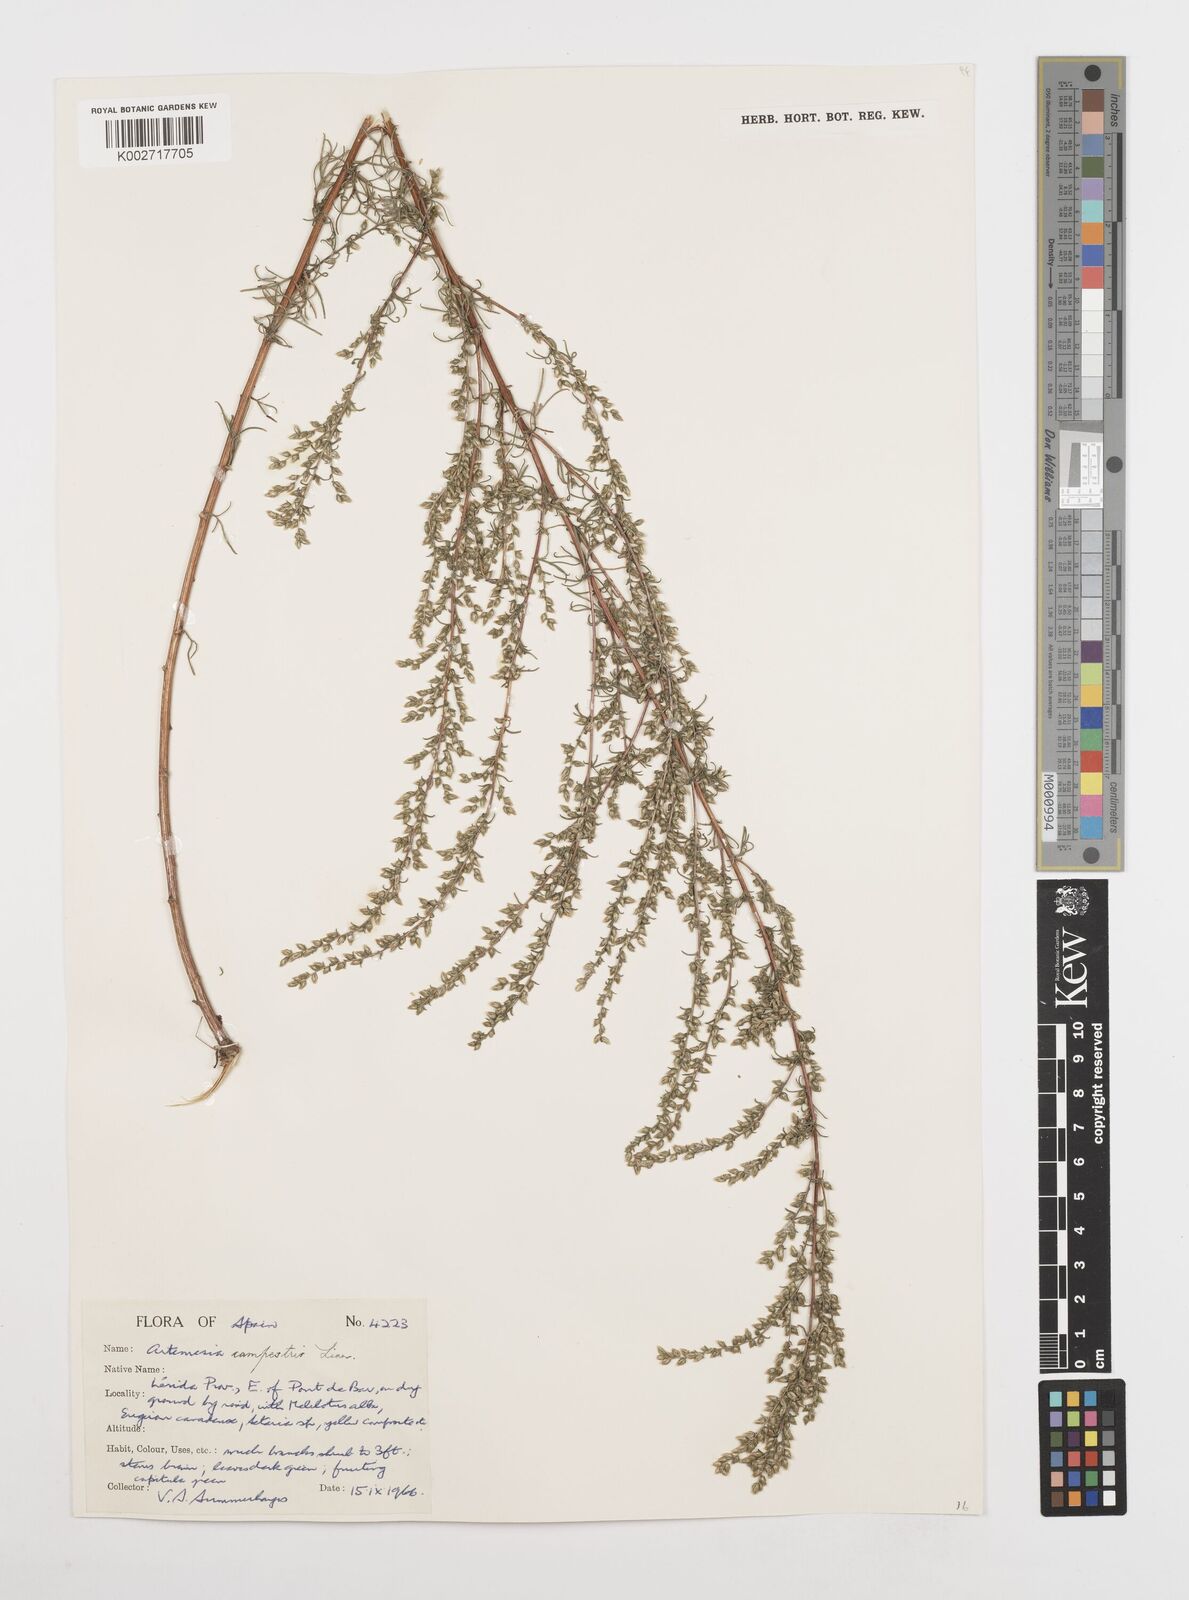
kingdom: Plantae
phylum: Tracheophyta
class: Magnoliopsida
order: Asterales
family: Asteraceae
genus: Artemisia
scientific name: Artemisia campestris
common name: Field wormwood
